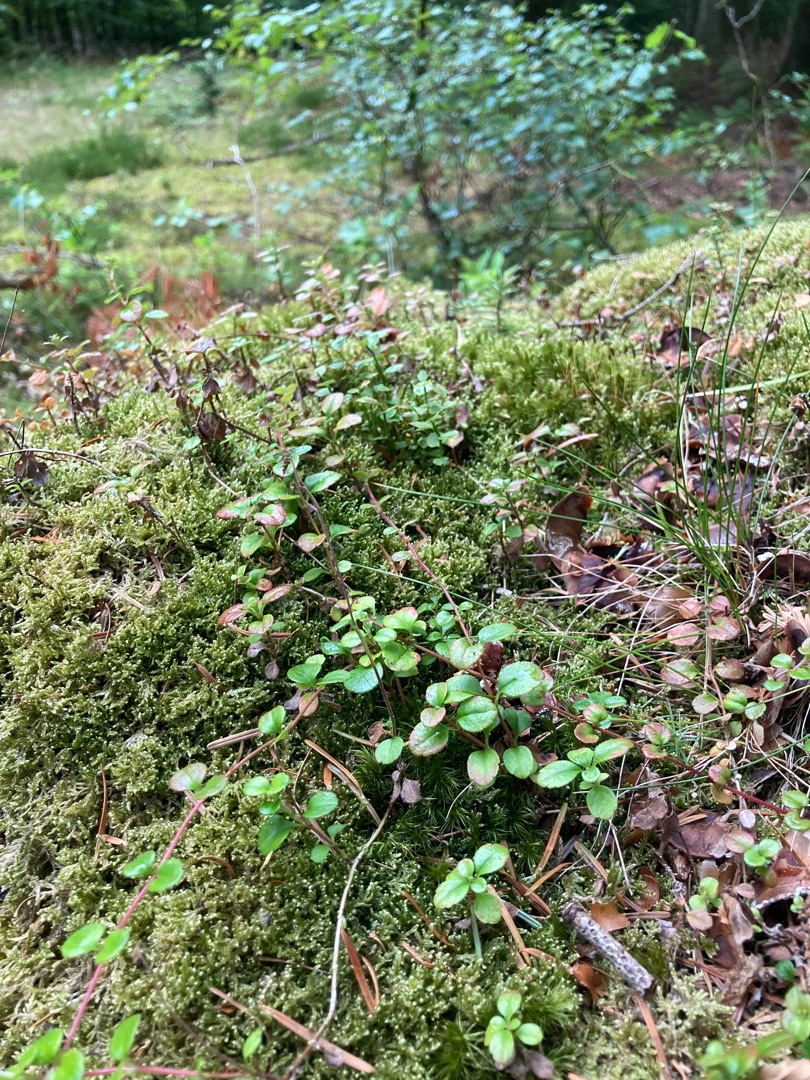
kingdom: Plantae
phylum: Tracheophyta
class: Magnoliopsida
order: Dipsacales
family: Caprifoliaceae
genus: Linnaea
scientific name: Linnaea borealis
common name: Linnæa
